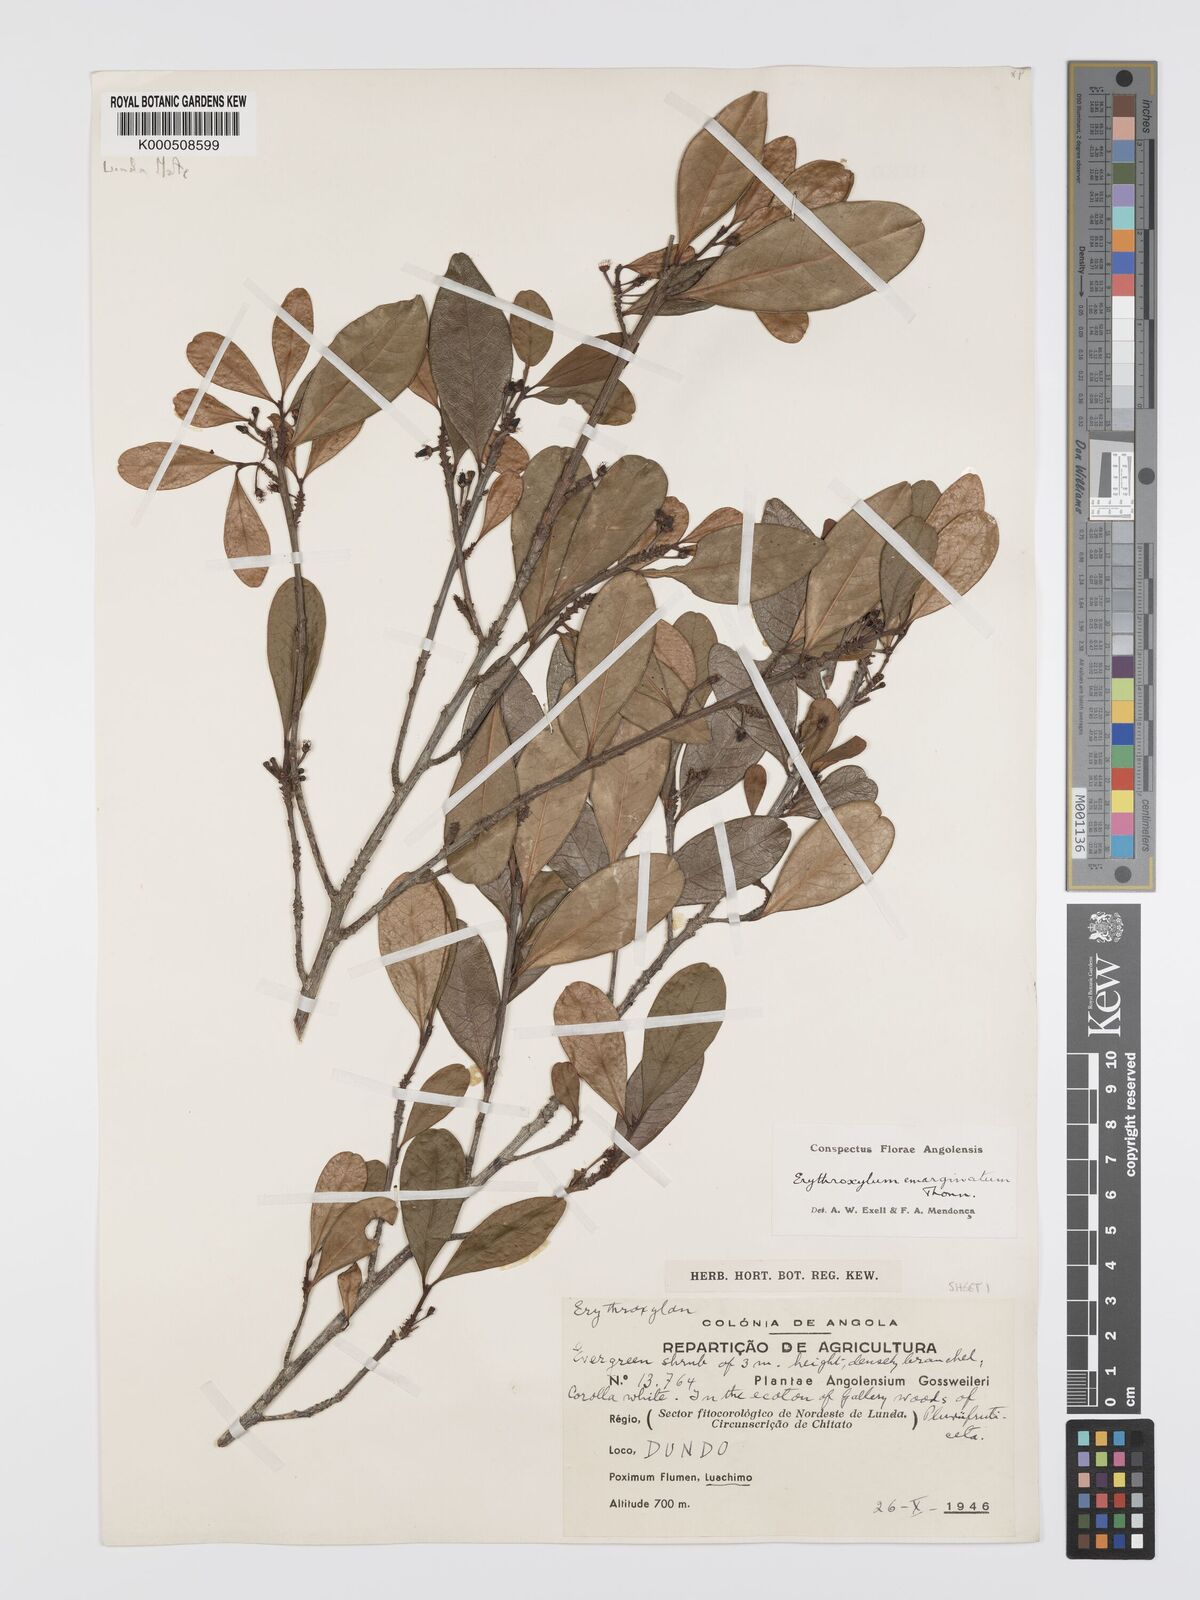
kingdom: Plantae
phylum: Tracheophyta
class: Magnoliopsida
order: Malpighiales
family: Erythroxylaceae
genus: Erythroxylum
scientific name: Erythroxylum emarginatum
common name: African coca-tree
